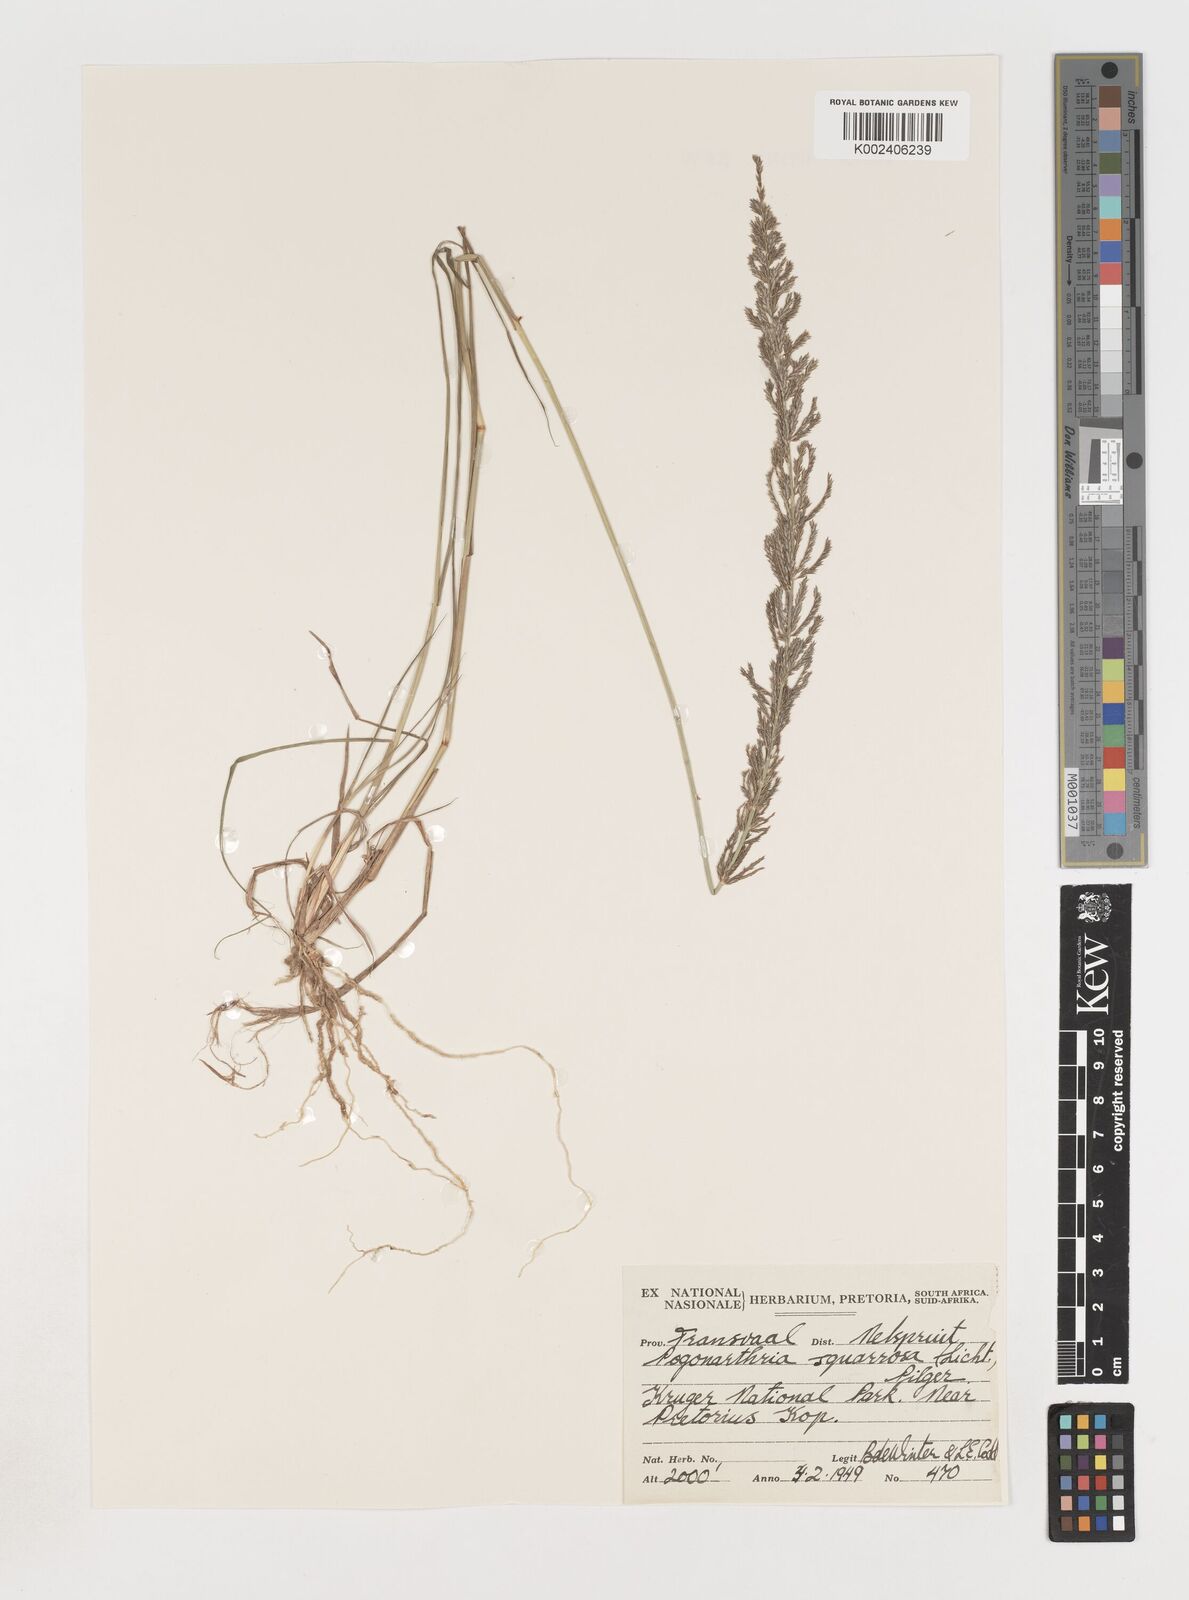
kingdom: Plantae
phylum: Tracheophyta
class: Liliopsida
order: Poales
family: Poaceae
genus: Pogonarthria
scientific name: Pogonarthria squarrosa
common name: Grass
